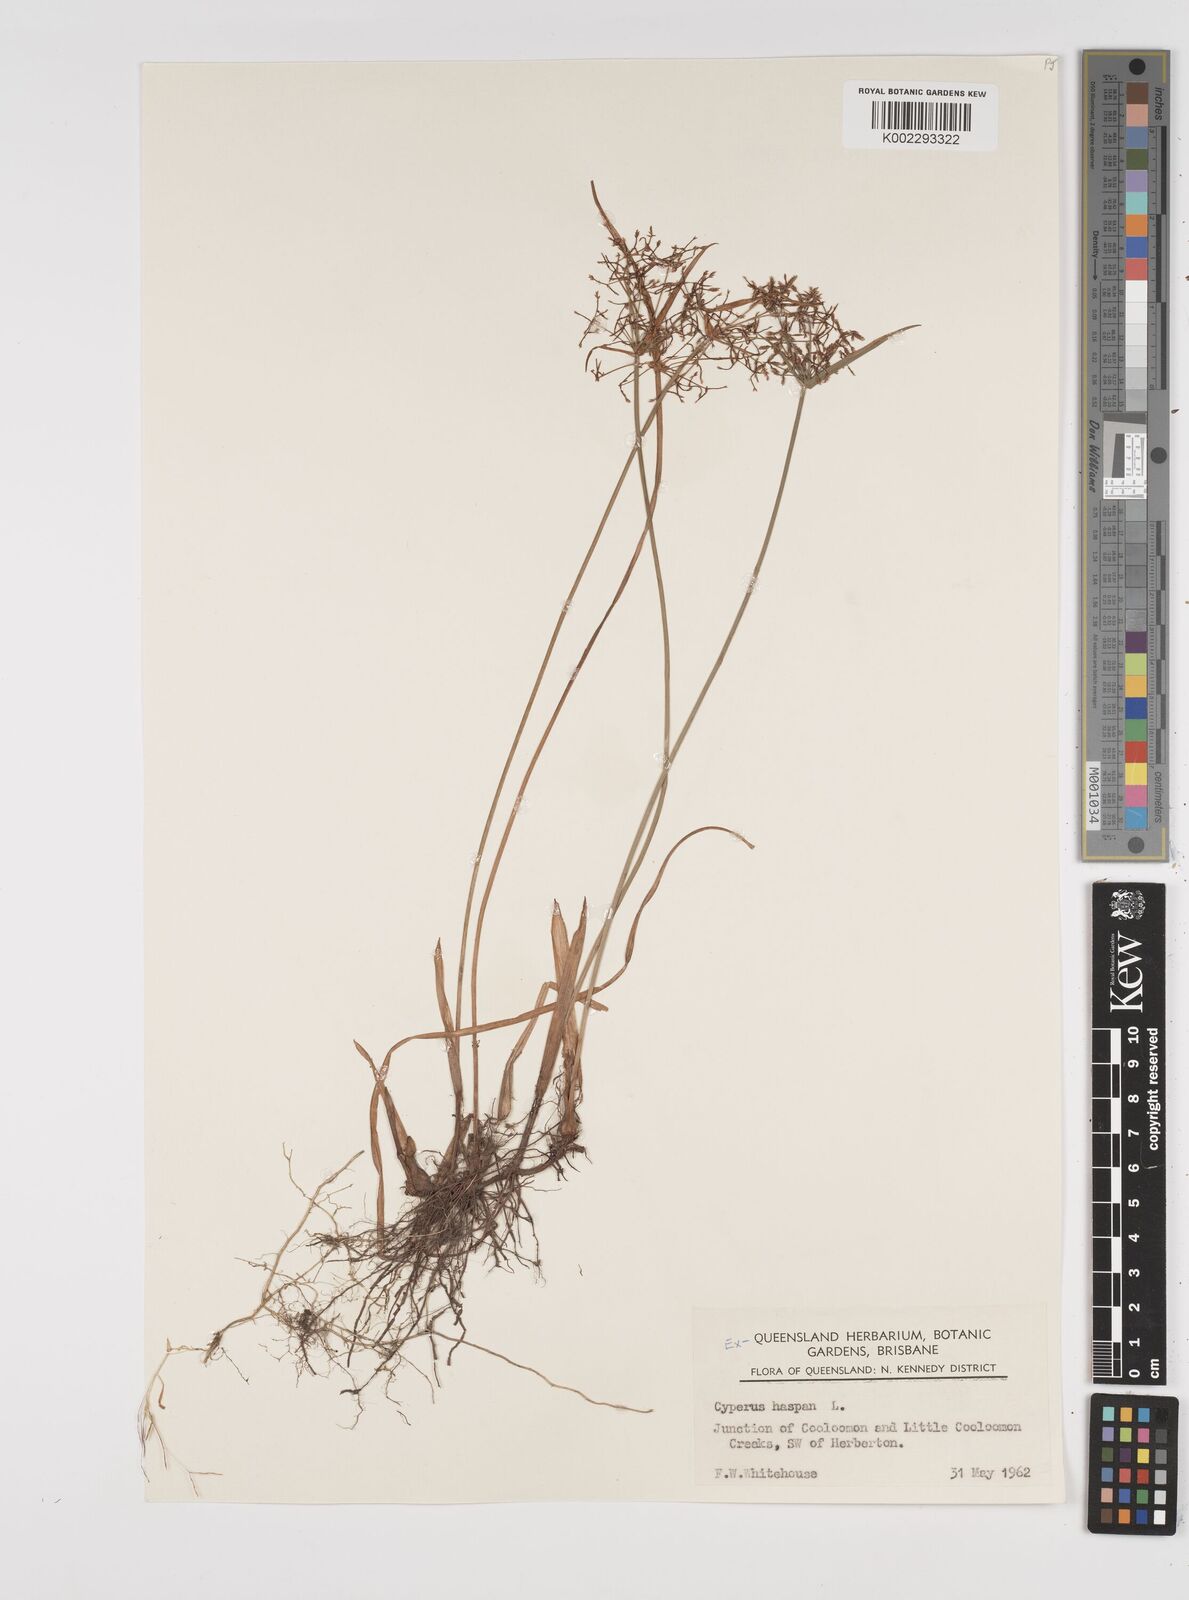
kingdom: Plantae
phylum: Tracheophyta
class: Liliopsida
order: Poales
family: Cyperaceae
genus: Cyperus
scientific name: Cyperus haspan
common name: Haspan flatsedge
